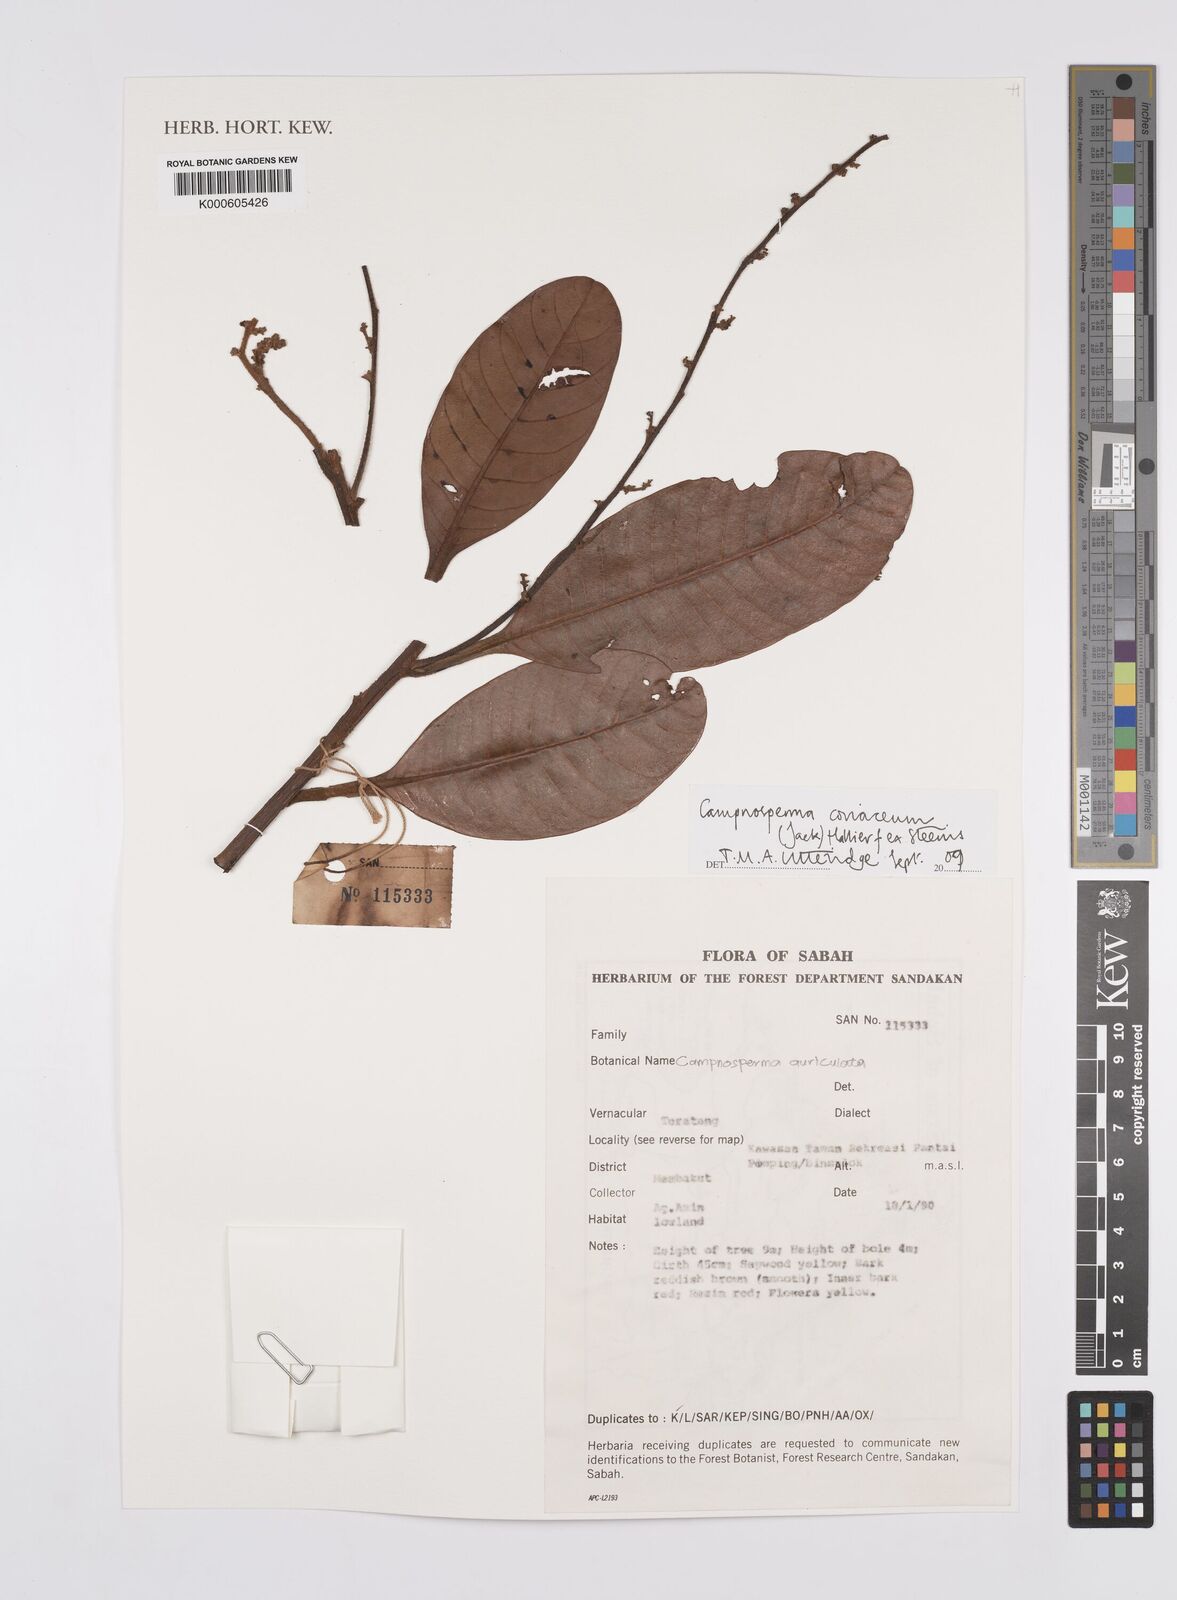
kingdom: Plantae
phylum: Tracheophyta
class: Magnoliopsida
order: Sapindales
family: Anacardiaceae
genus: Campnosperma
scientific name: Campnosperma
